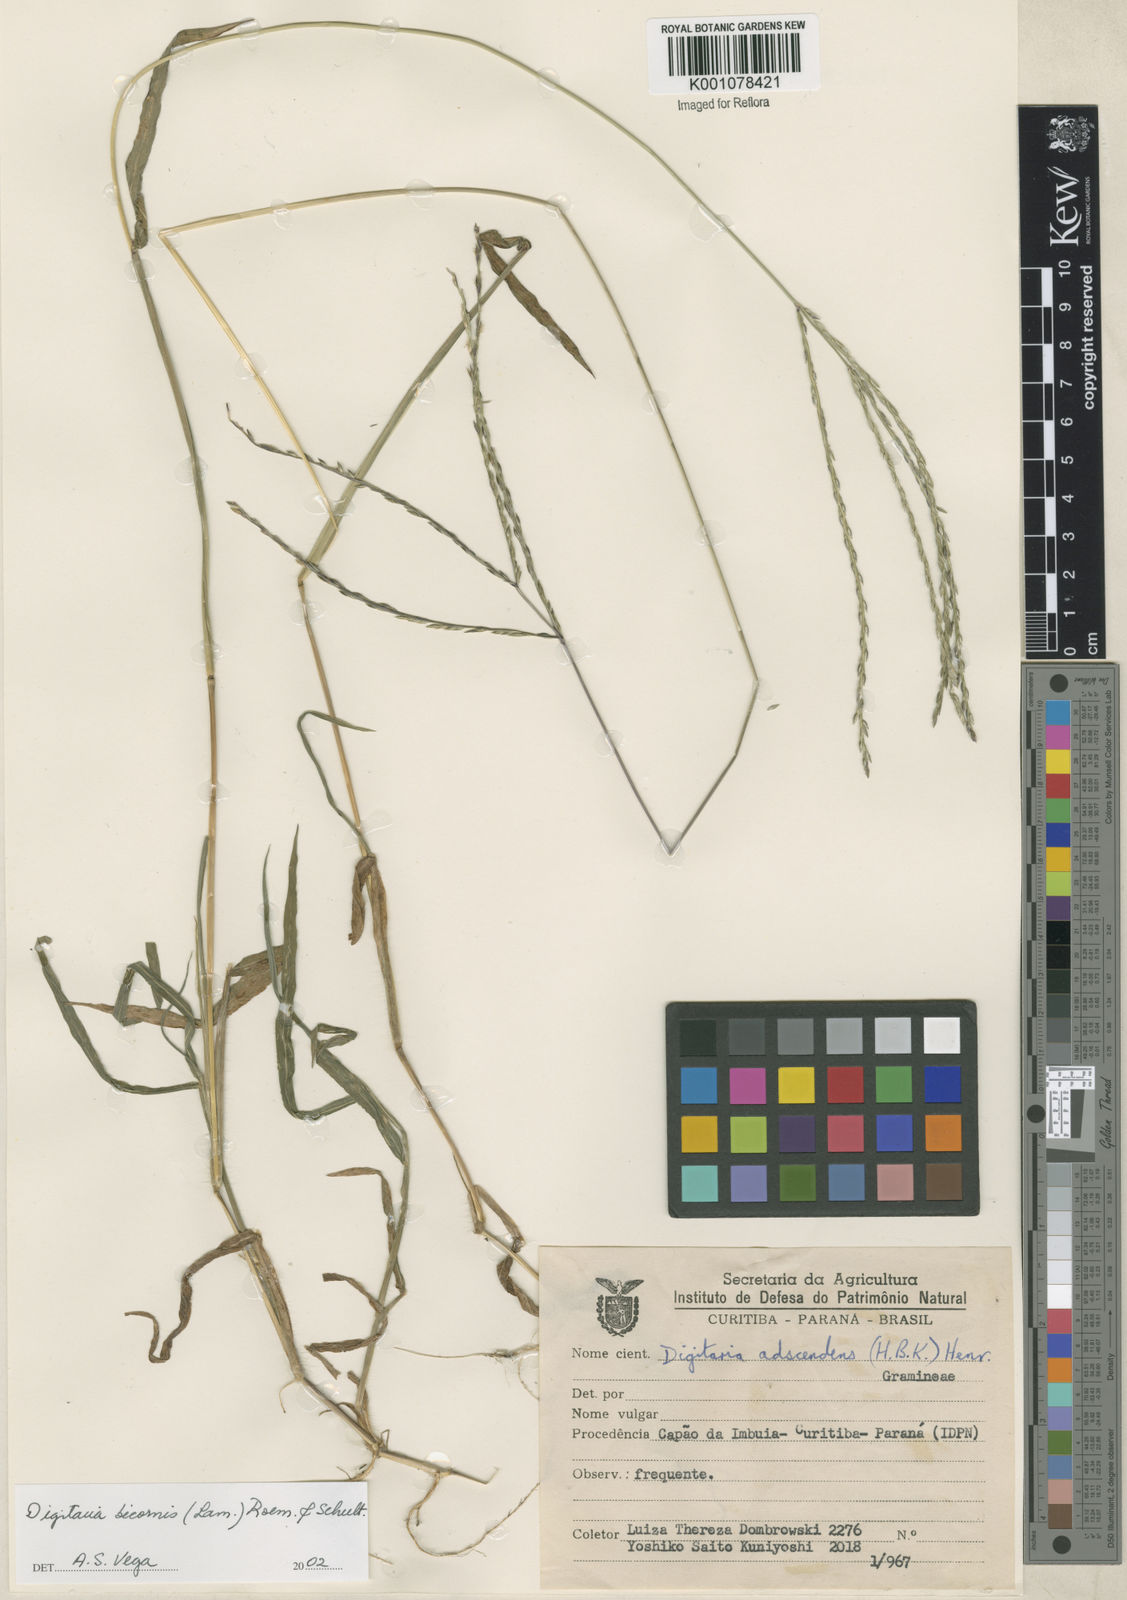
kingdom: Plantae
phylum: Tracheophyta
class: Liliopsida
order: Poales
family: Poaceae
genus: Digitaria
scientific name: Digitaria bicornis
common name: Asian crabgrass
